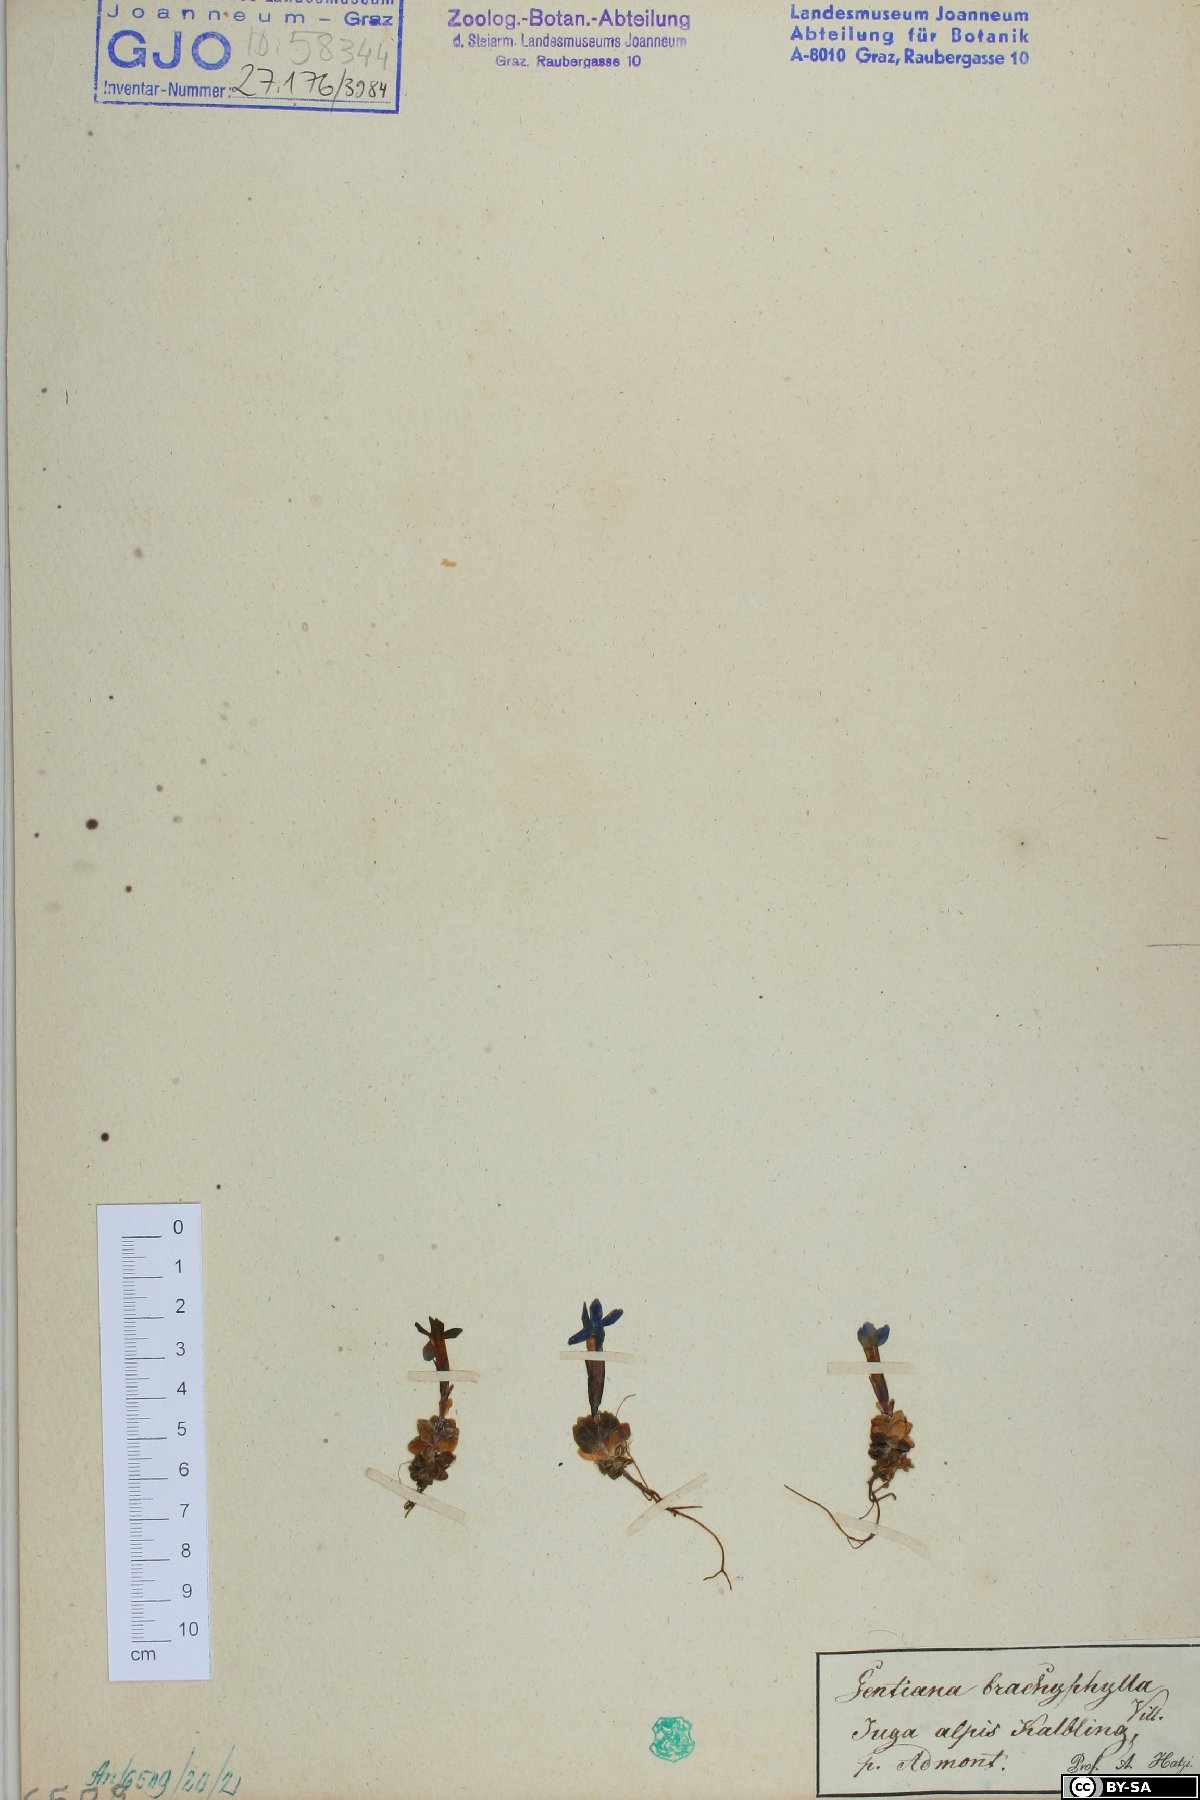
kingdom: Plantae
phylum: Tracheophyta
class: Magnoliopsida
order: Gentianales
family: Gentianaceae
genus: Gentiana
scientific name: Gentiana brachyphylla
